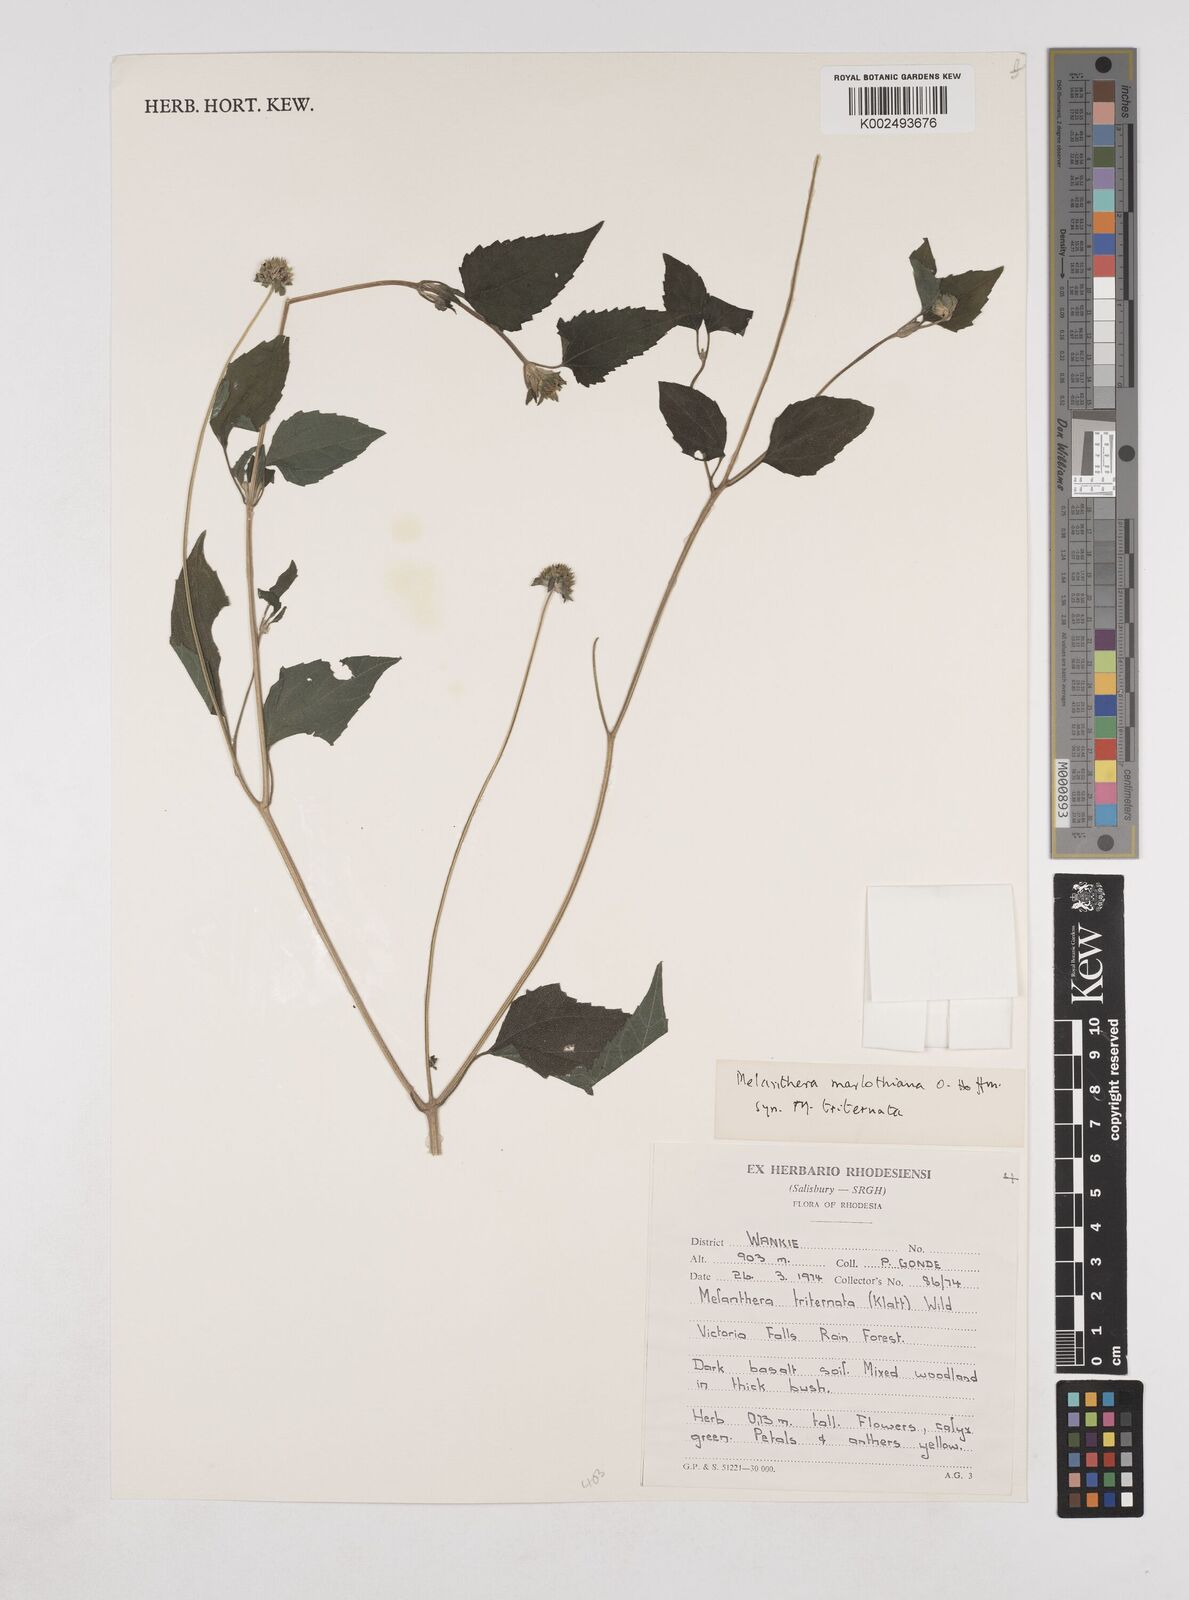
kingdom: Plantae
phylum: Tracheophyta
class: Magnoliopsida
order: Asterales
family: Asteraceae
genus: Lipotriche
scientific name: Lipotriche marlothiana
